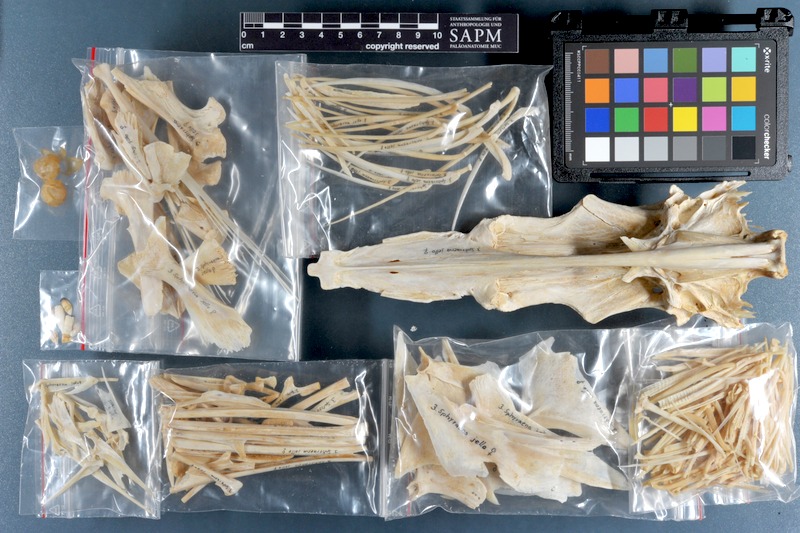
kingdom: Animalia
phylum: Chordata
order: Perciformes
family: Sphyraenidae
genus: Sphyraena
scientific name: Sphyraena jello
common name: Pickhandle barracuda
